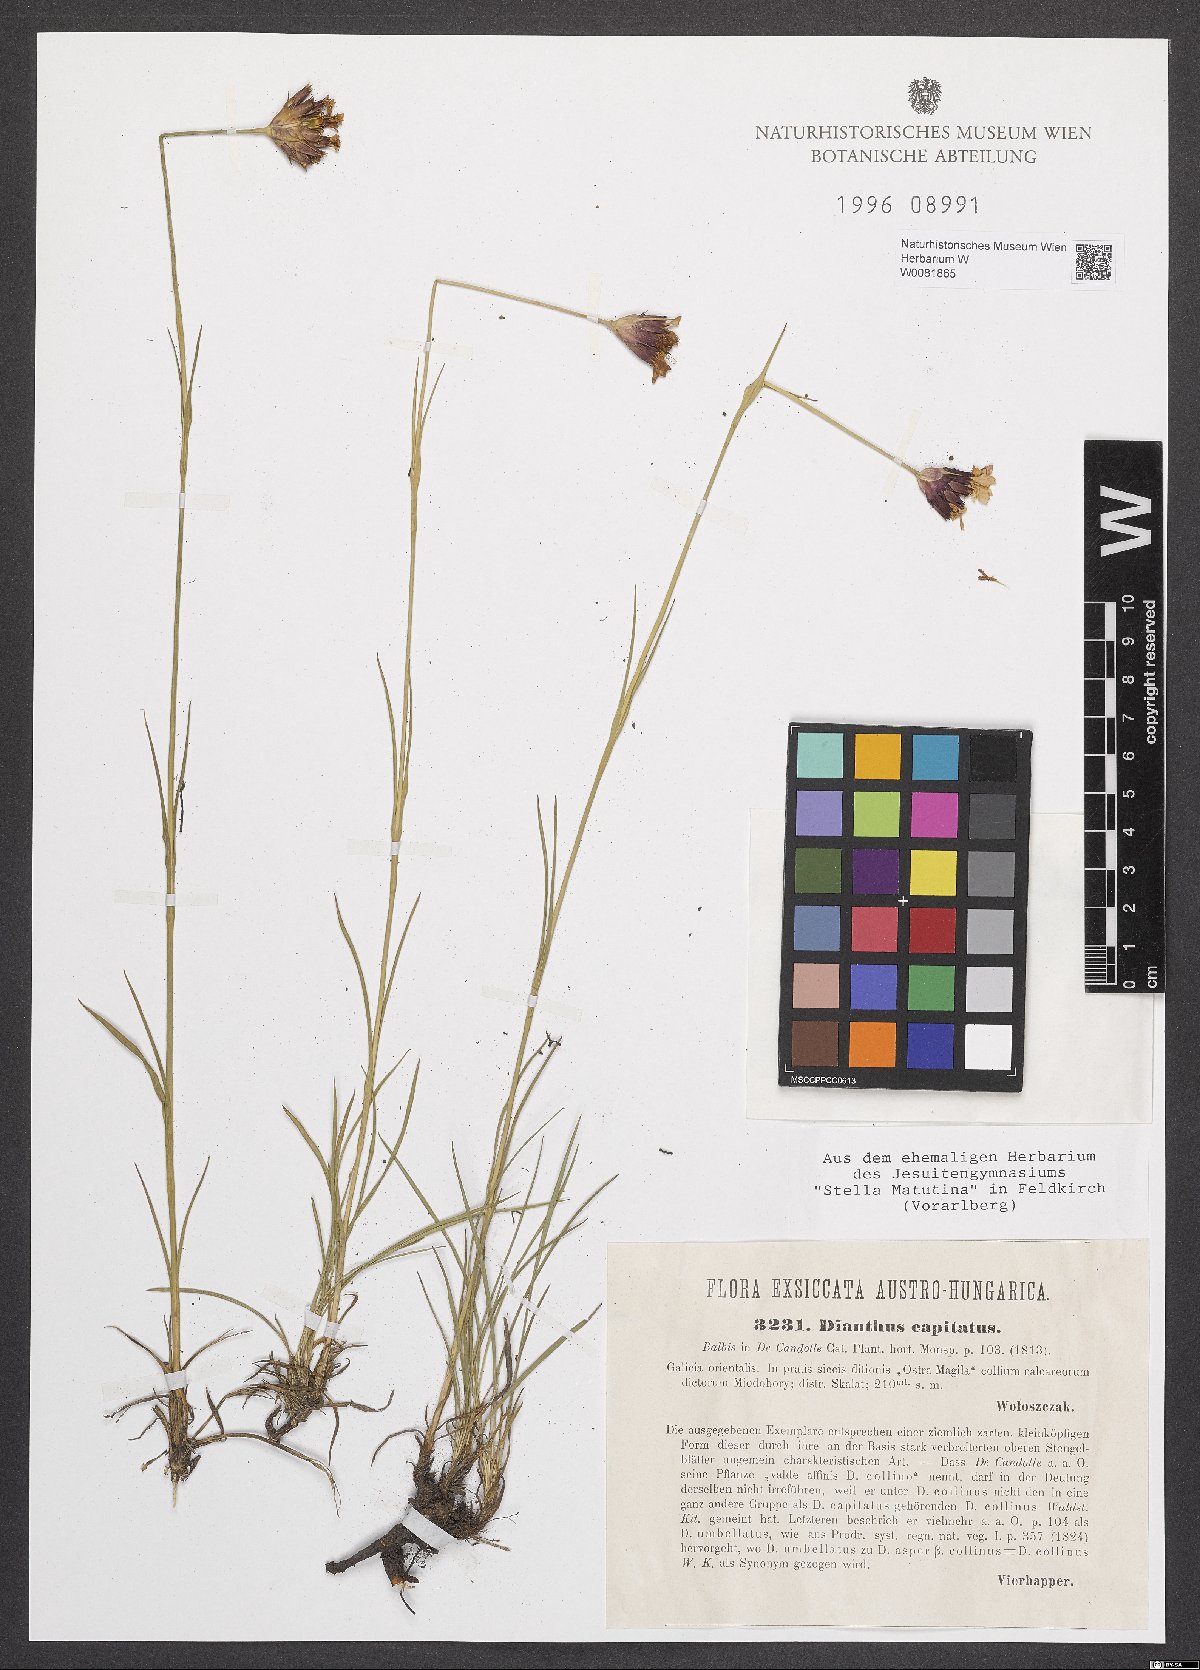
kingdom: Plantae
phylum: Tracheophyta
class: Magnoliopsida
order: Caryophyllales
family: Caryophyllaceae
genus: Dianthus
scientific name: Dianthus capitatus
